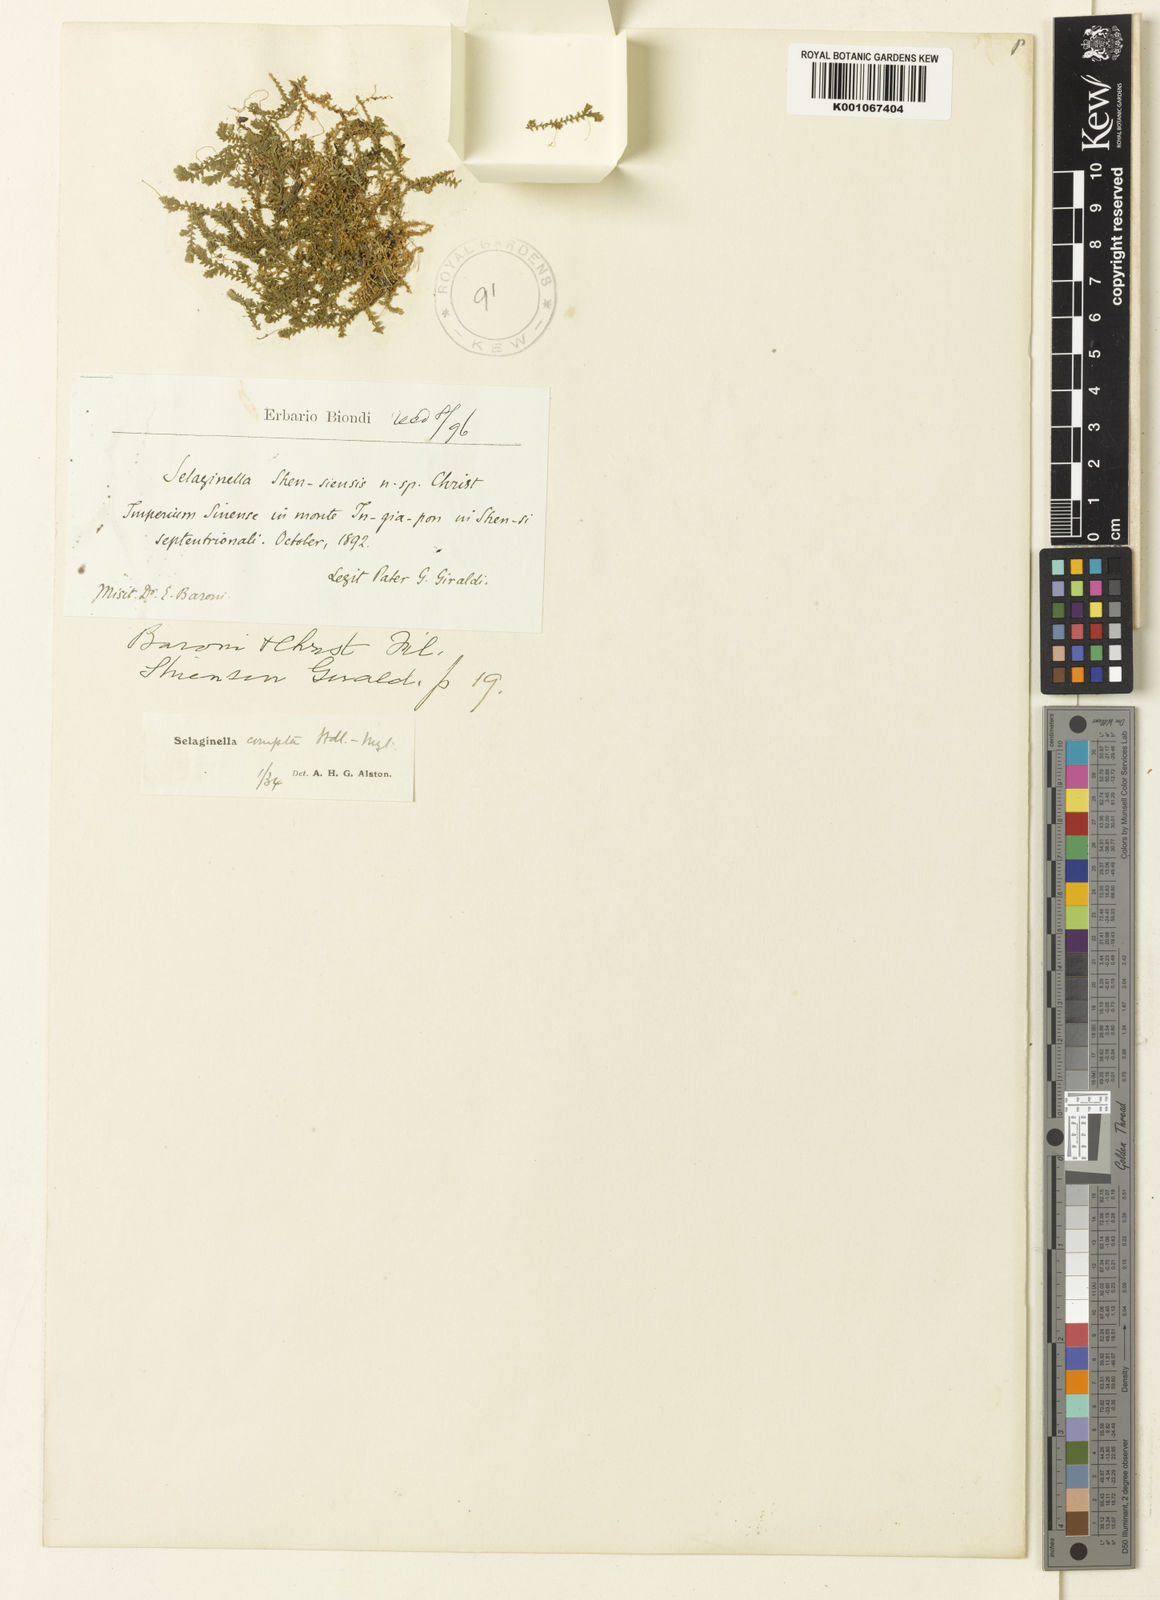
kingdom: Plantae
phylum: Tracheophyta
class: Lycopodiopsida
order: Selaginellales
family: Selaginellaceae
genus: Selaginella
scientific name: Selaginella
